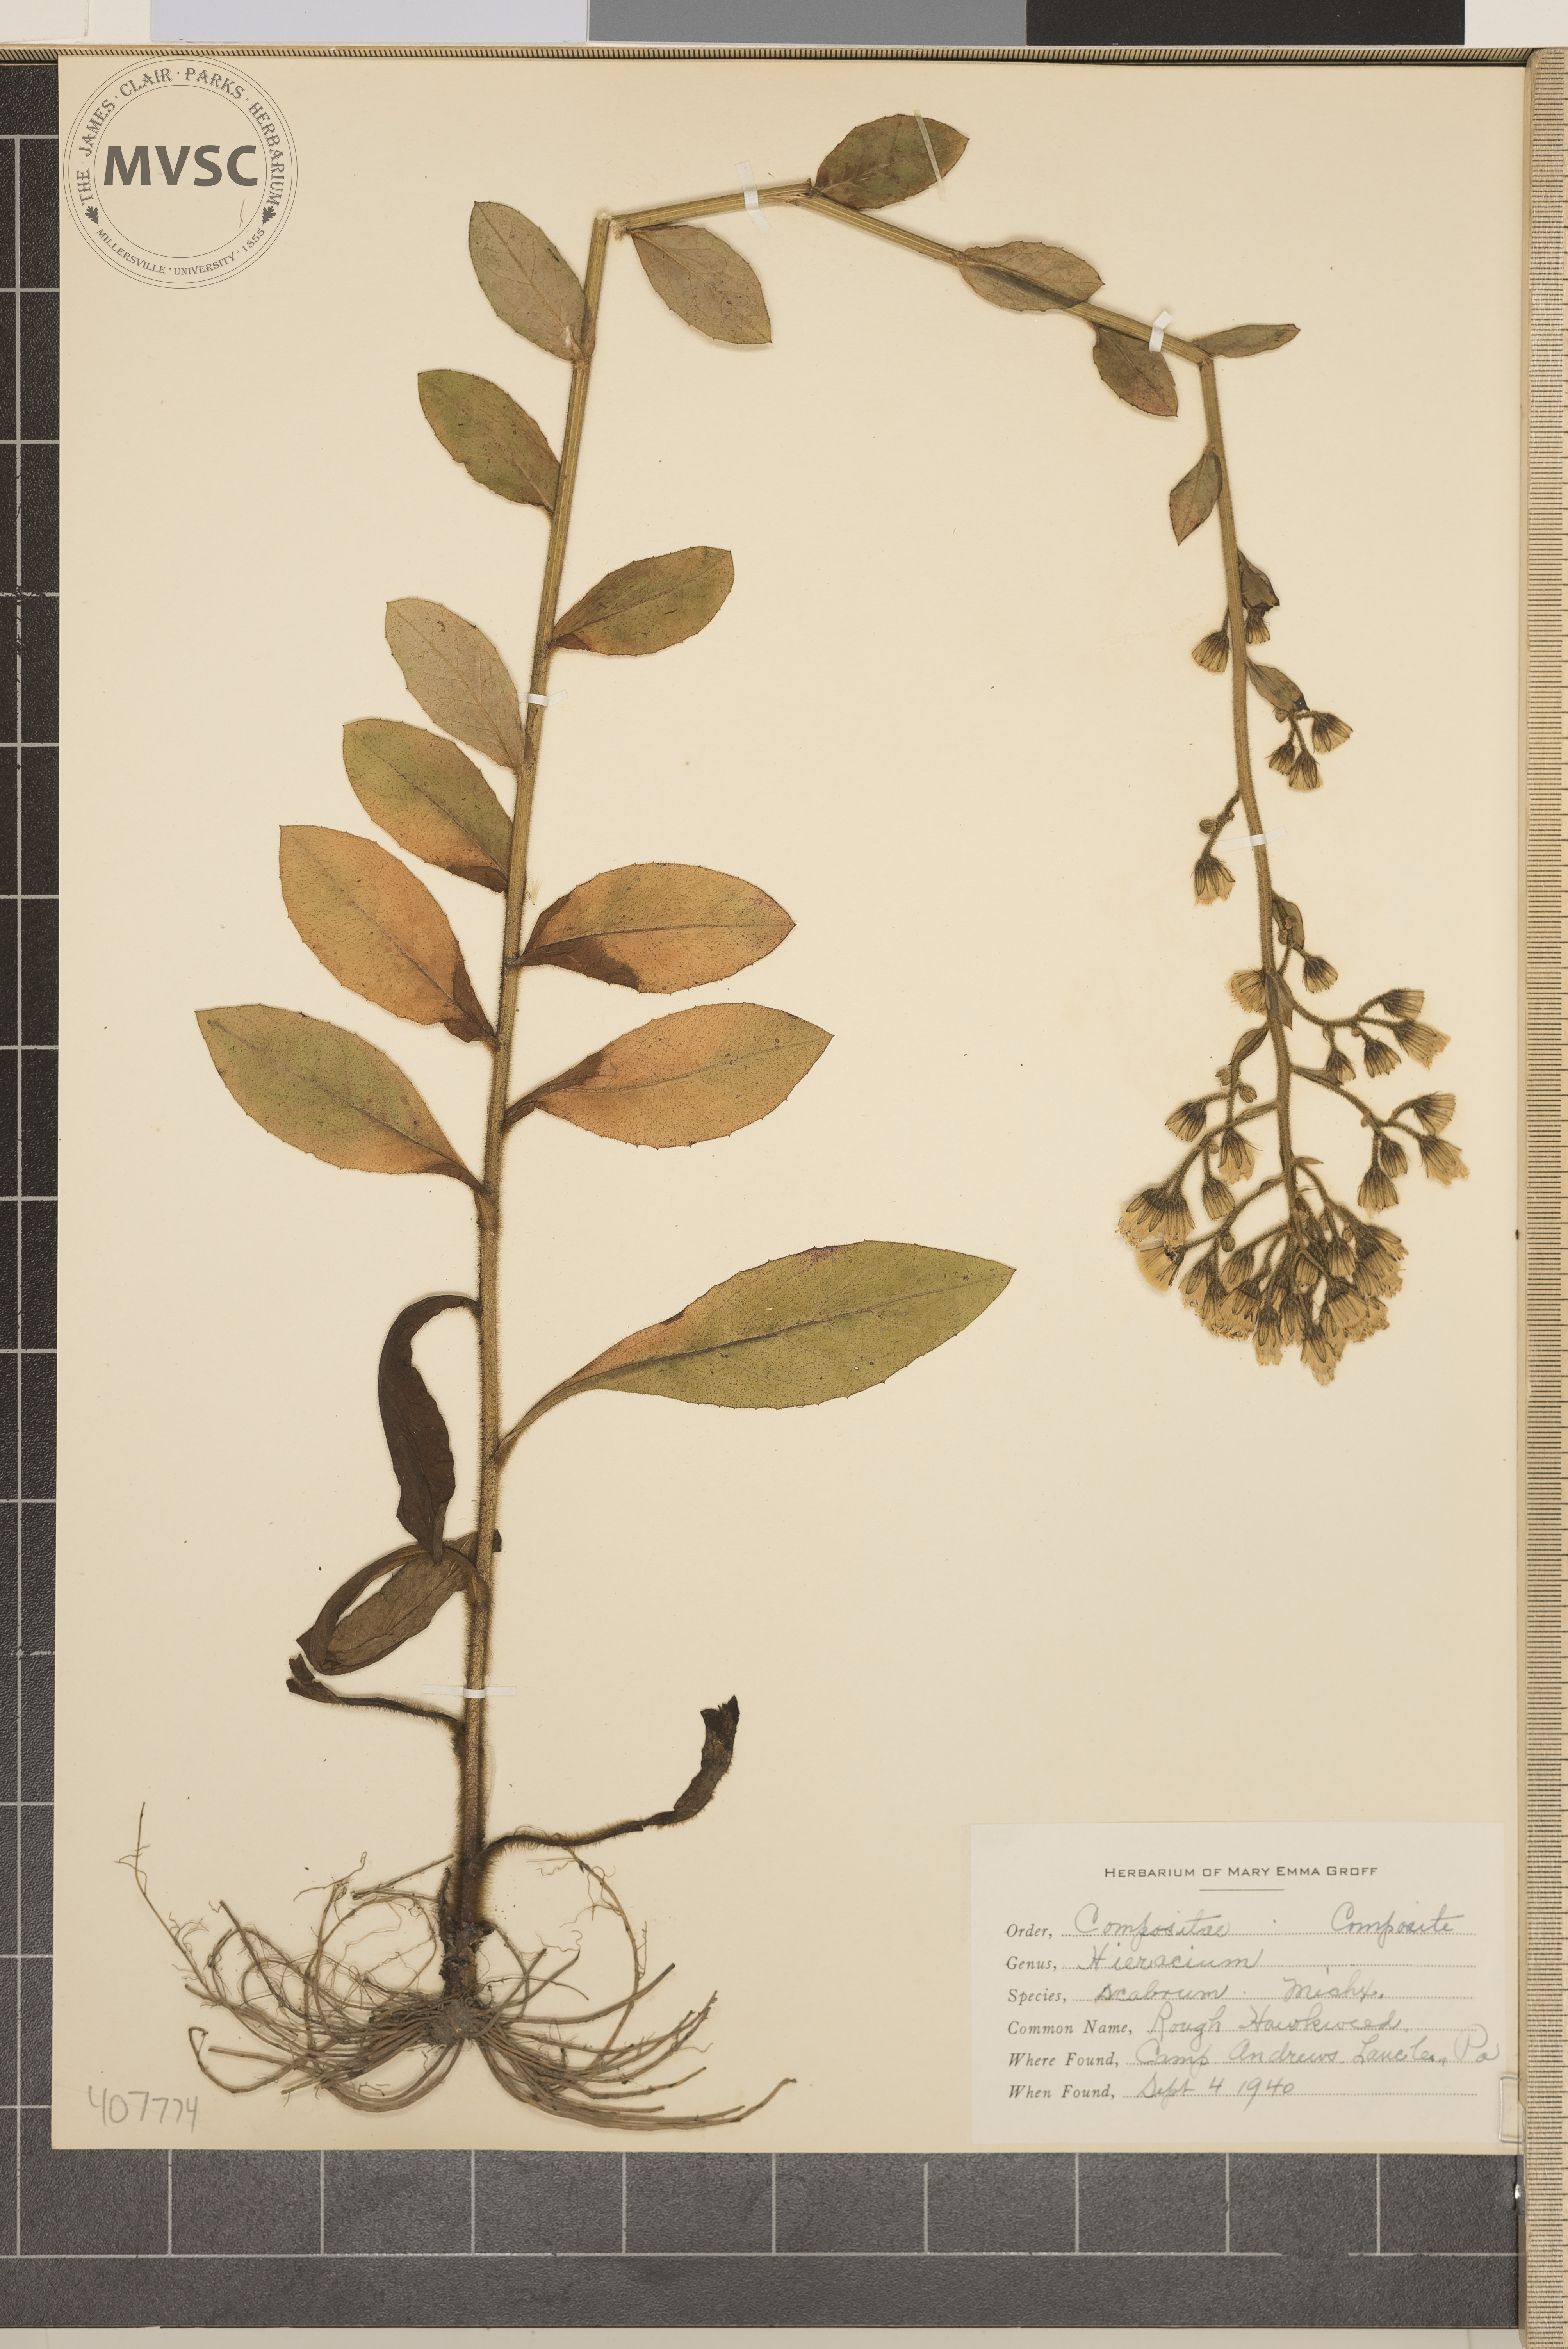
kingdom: Plantae
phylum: Tracheophyta
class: Magnoliopsida
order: Asterales
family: Asteraceae
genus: Hieracium
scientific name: Hieracium scabrum
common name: rough hawkweed
